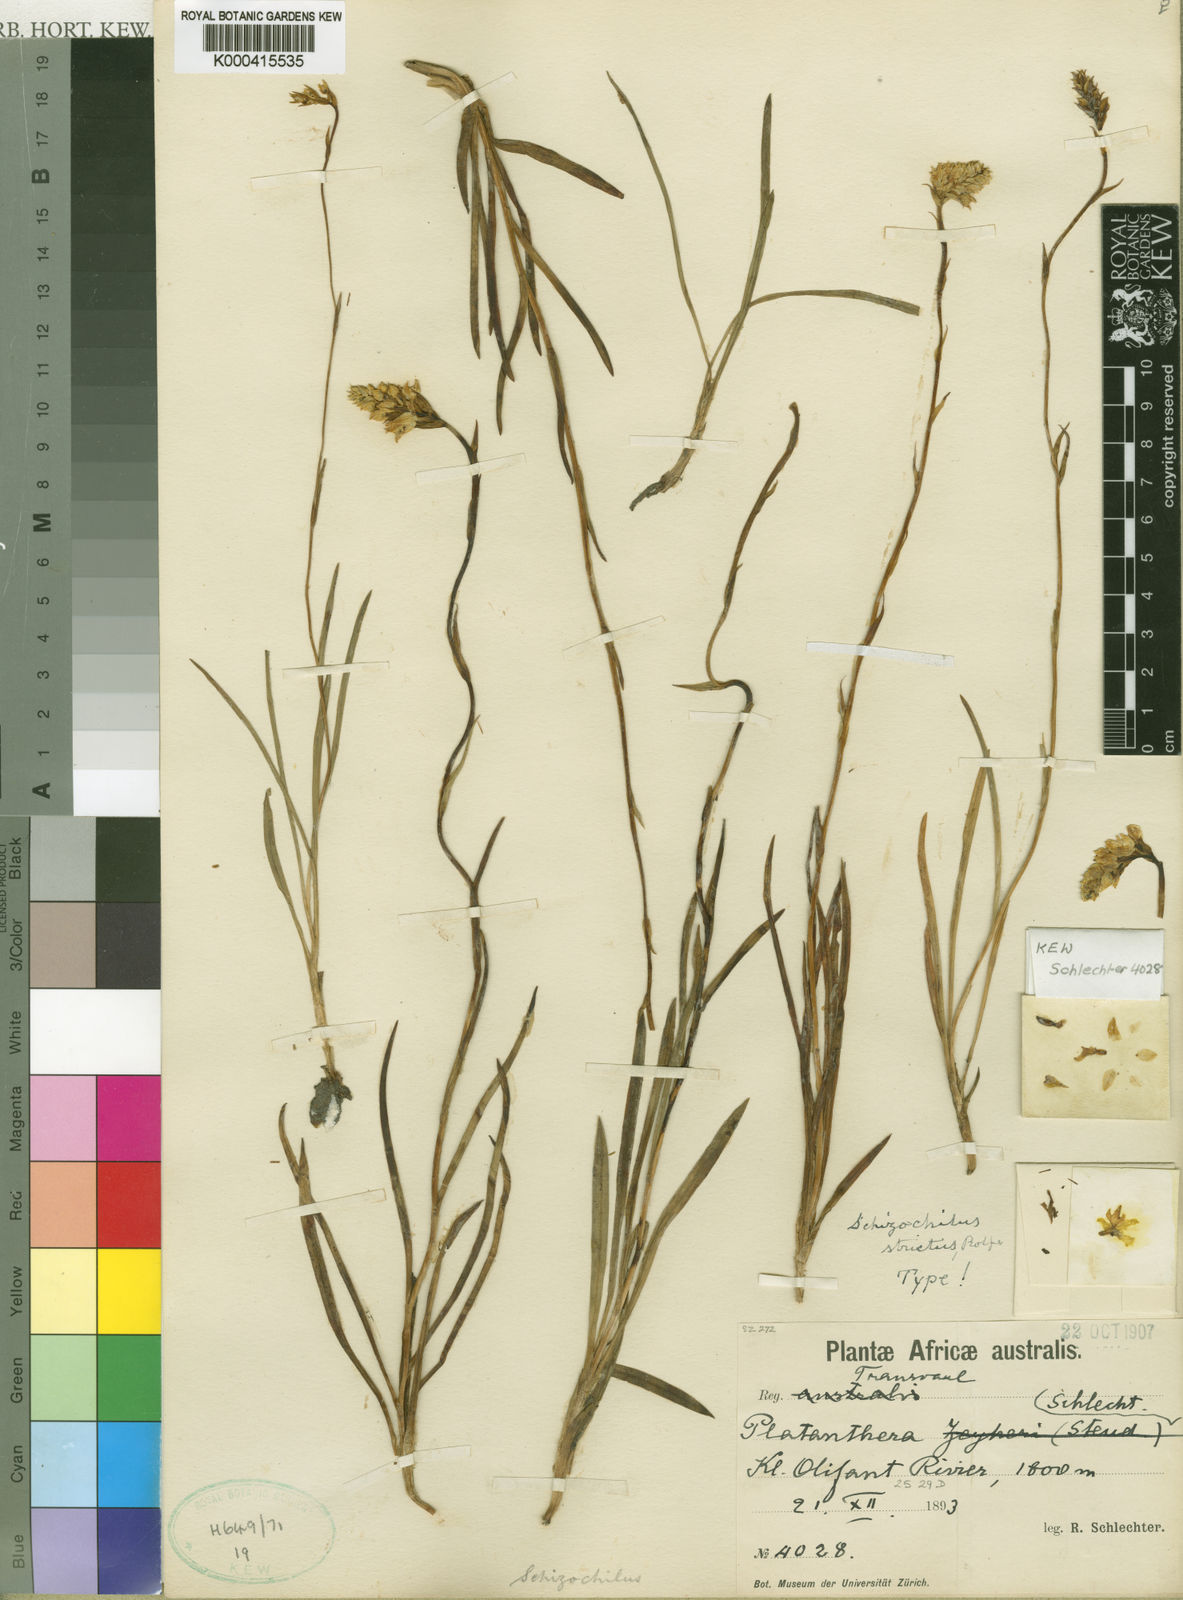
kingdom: Plantae
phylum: Tracheophyta
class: Liliopsida
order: Asparagales
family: Orchidaceae
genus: Schizochilus
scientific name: Schizochilus zeyheri
